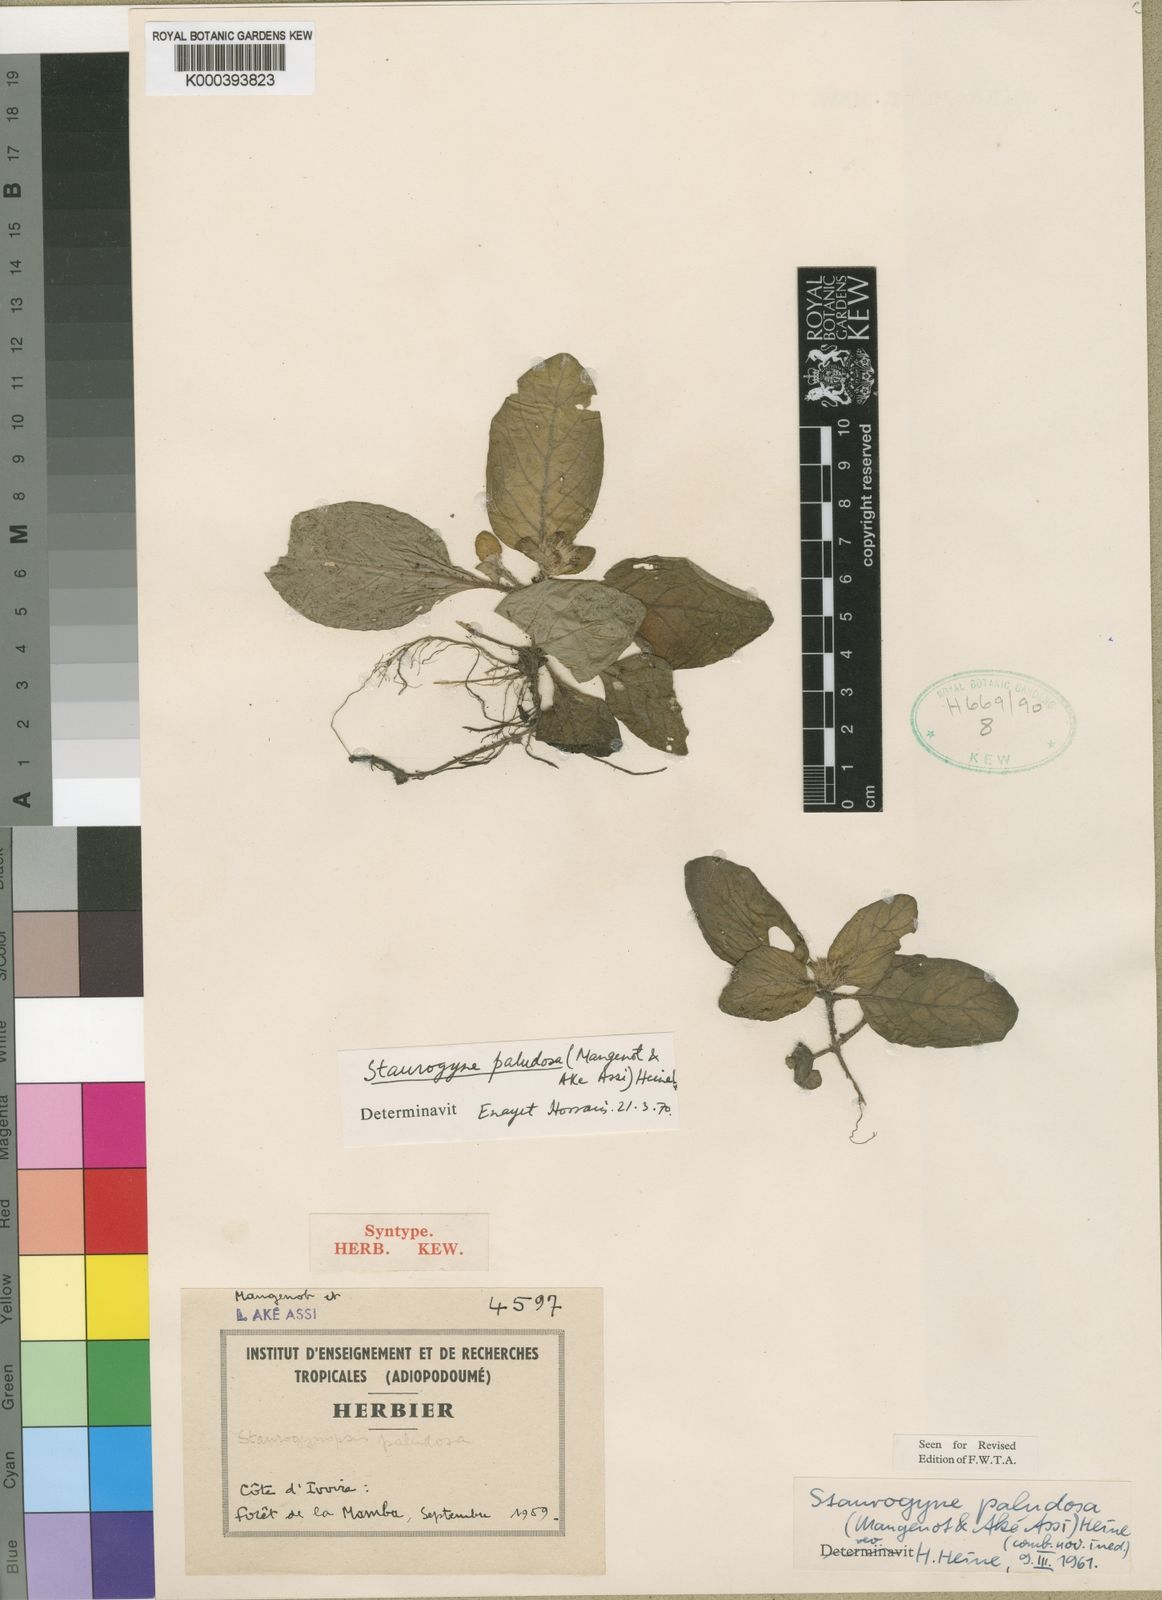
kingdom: Plantae
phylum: Tracheophyta
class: Magnoliopsida
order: Lamiales
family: Acanthaceae
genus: Staurogyne
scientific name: Staurogyne capitata
